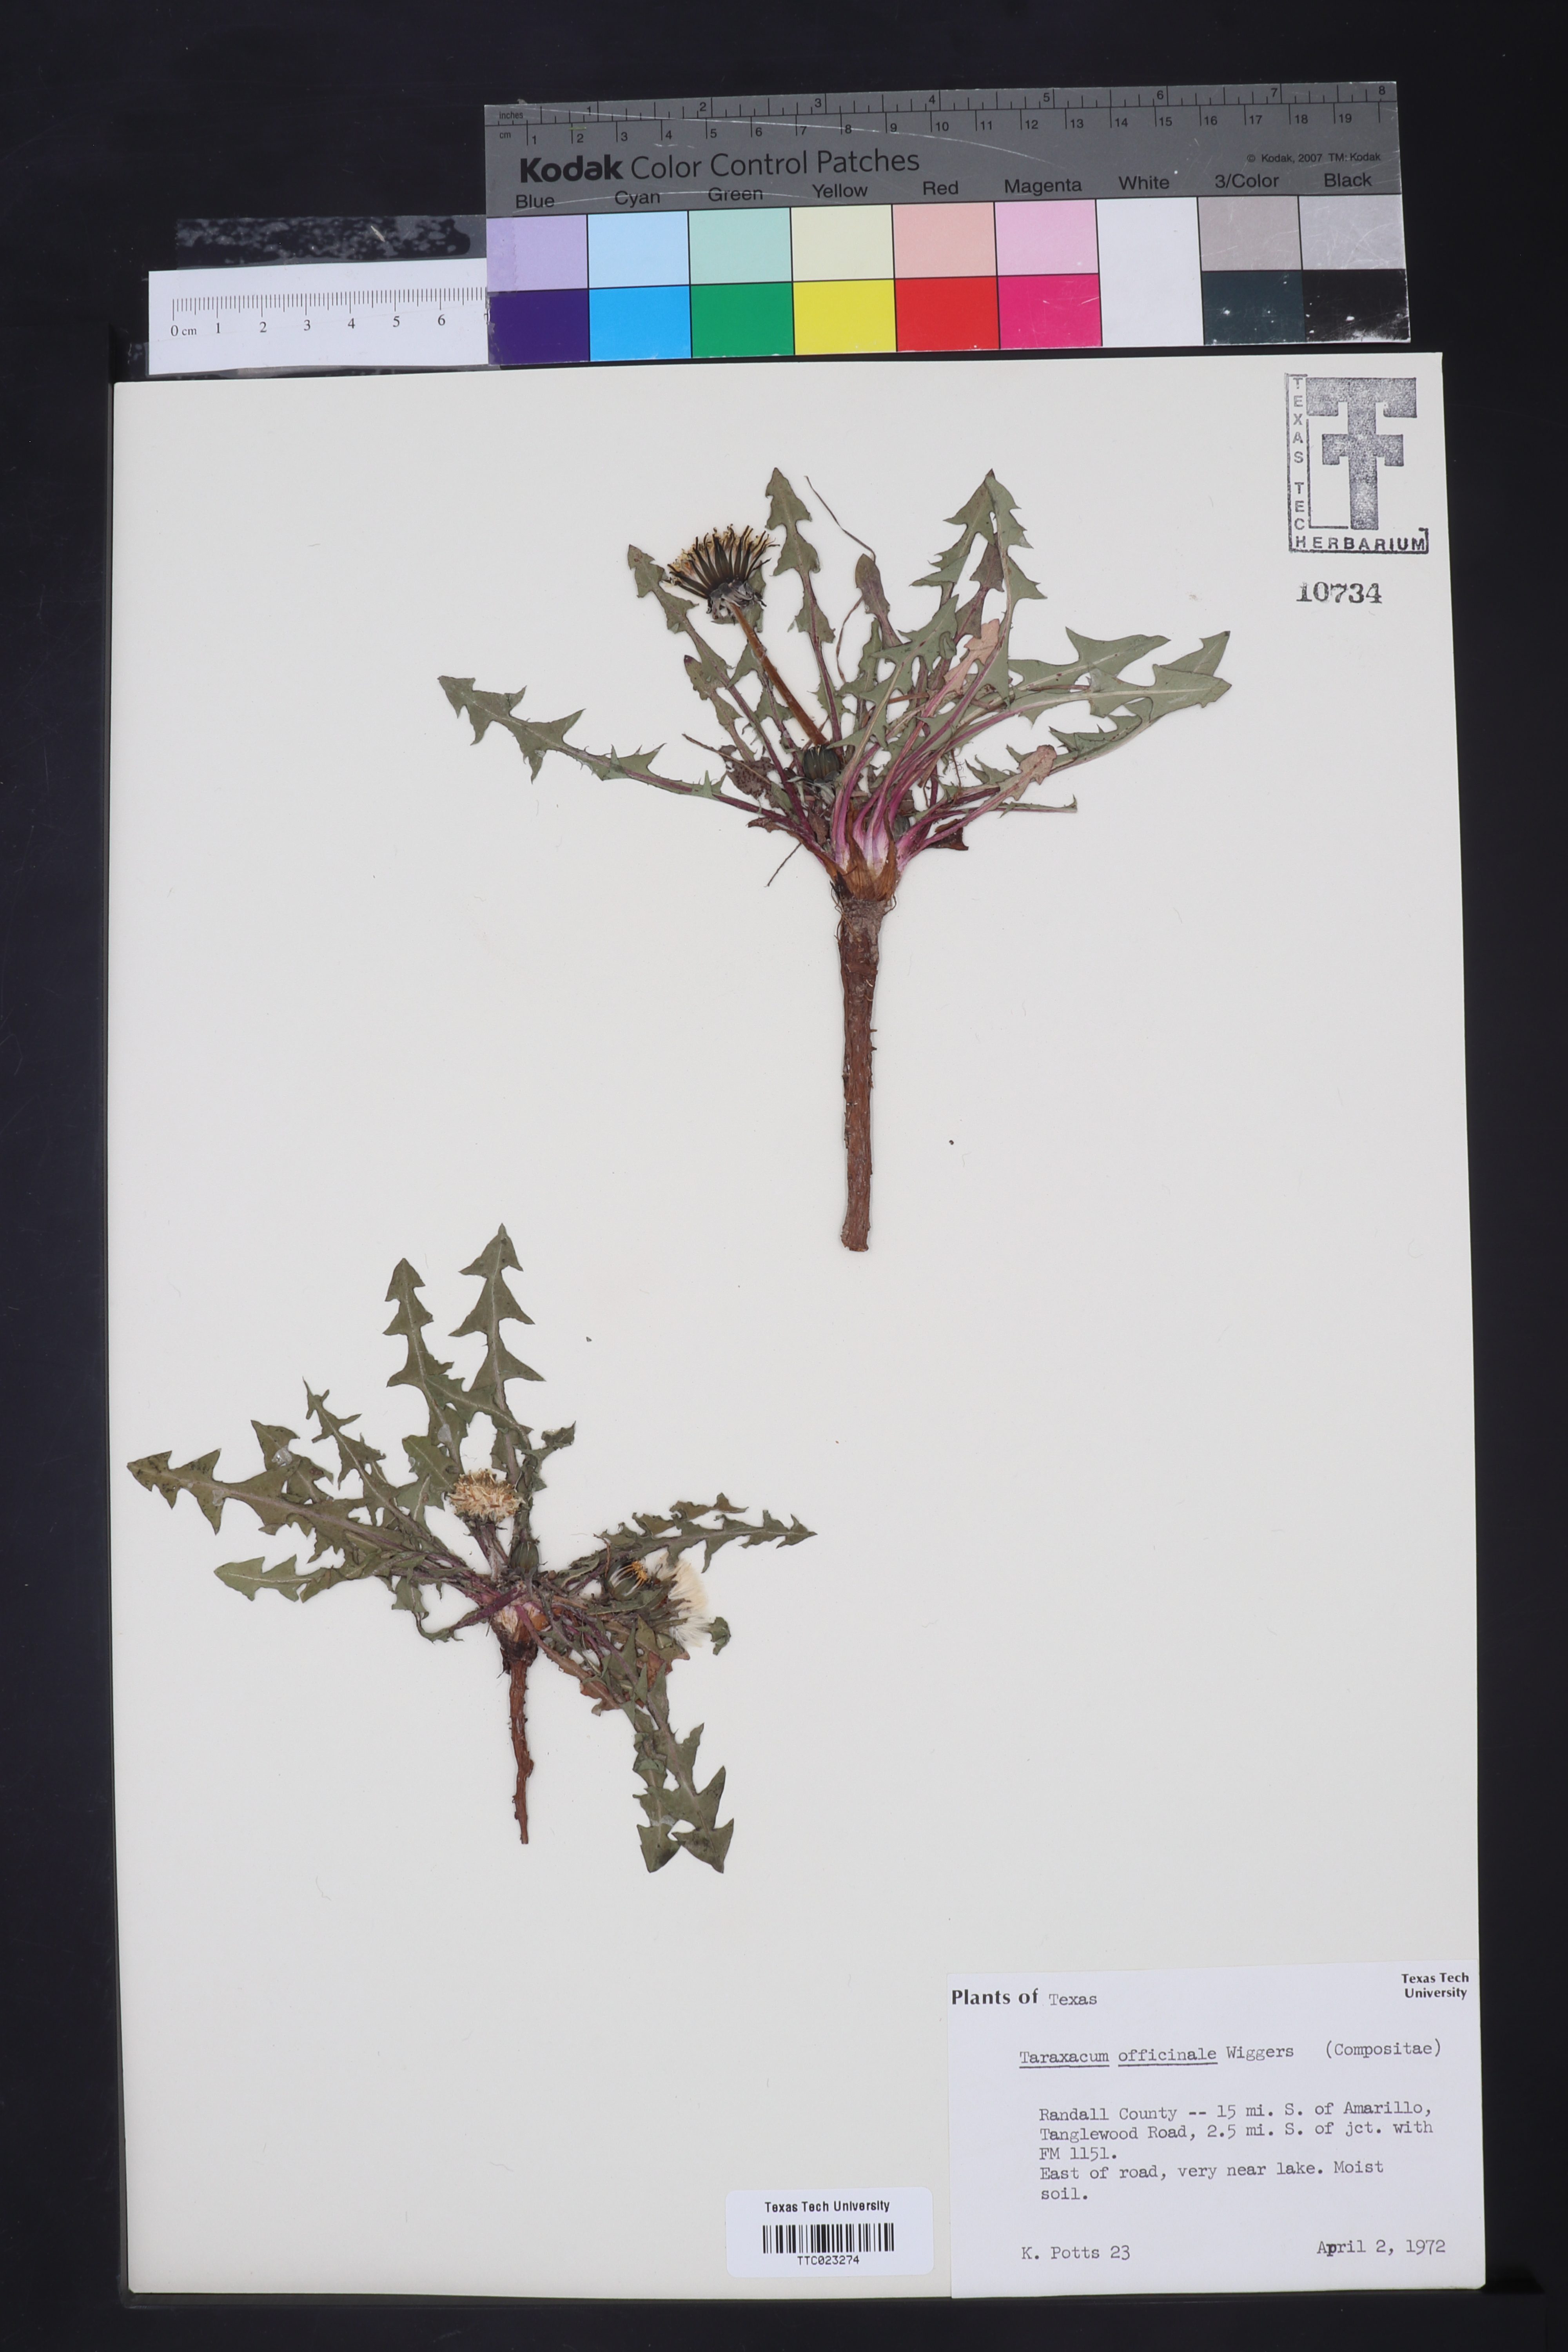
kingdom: Plantae
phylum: Tracheophyta
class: Magnoliopsida
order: Asterales
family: Asteraceae
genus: Taraxacum
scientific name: Taraxacum officinale
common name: Common dandelion
